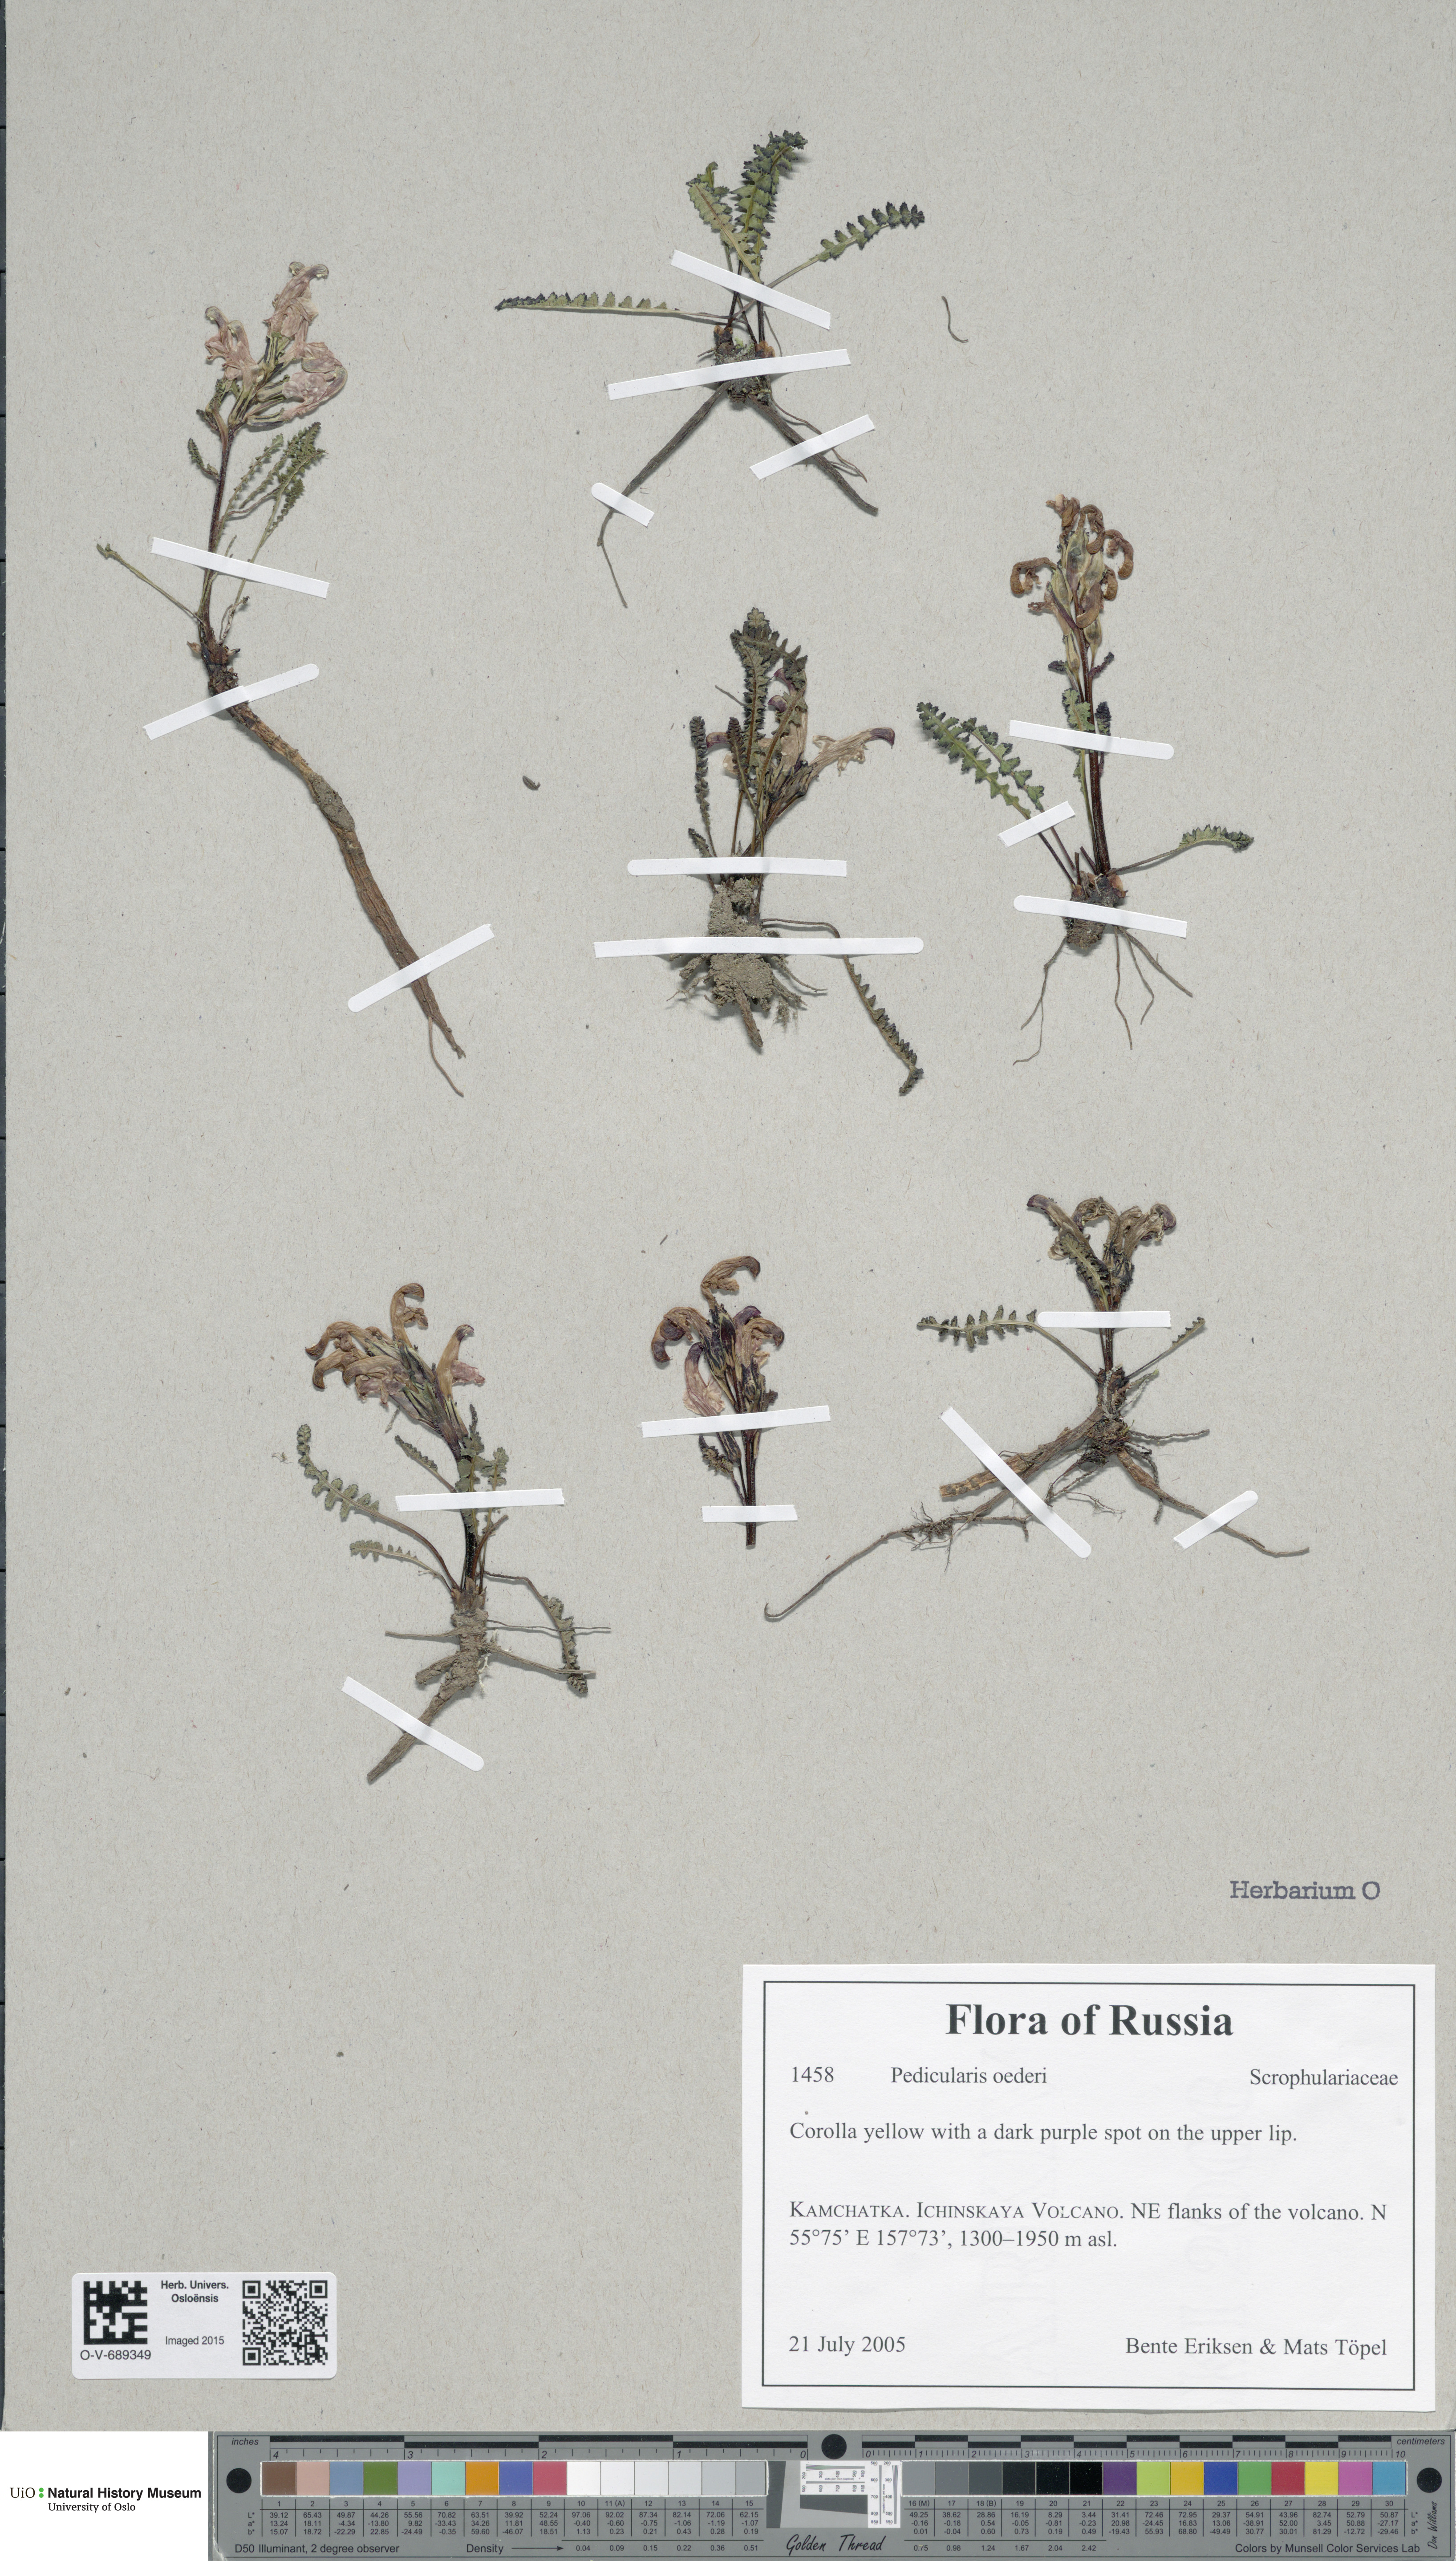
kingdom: Plantae
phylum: Tracheophyta
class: Magnoliopsida
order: Lamiales
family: Orobanchaceae
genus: Pedicularis
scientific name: Pedicularis oederi
